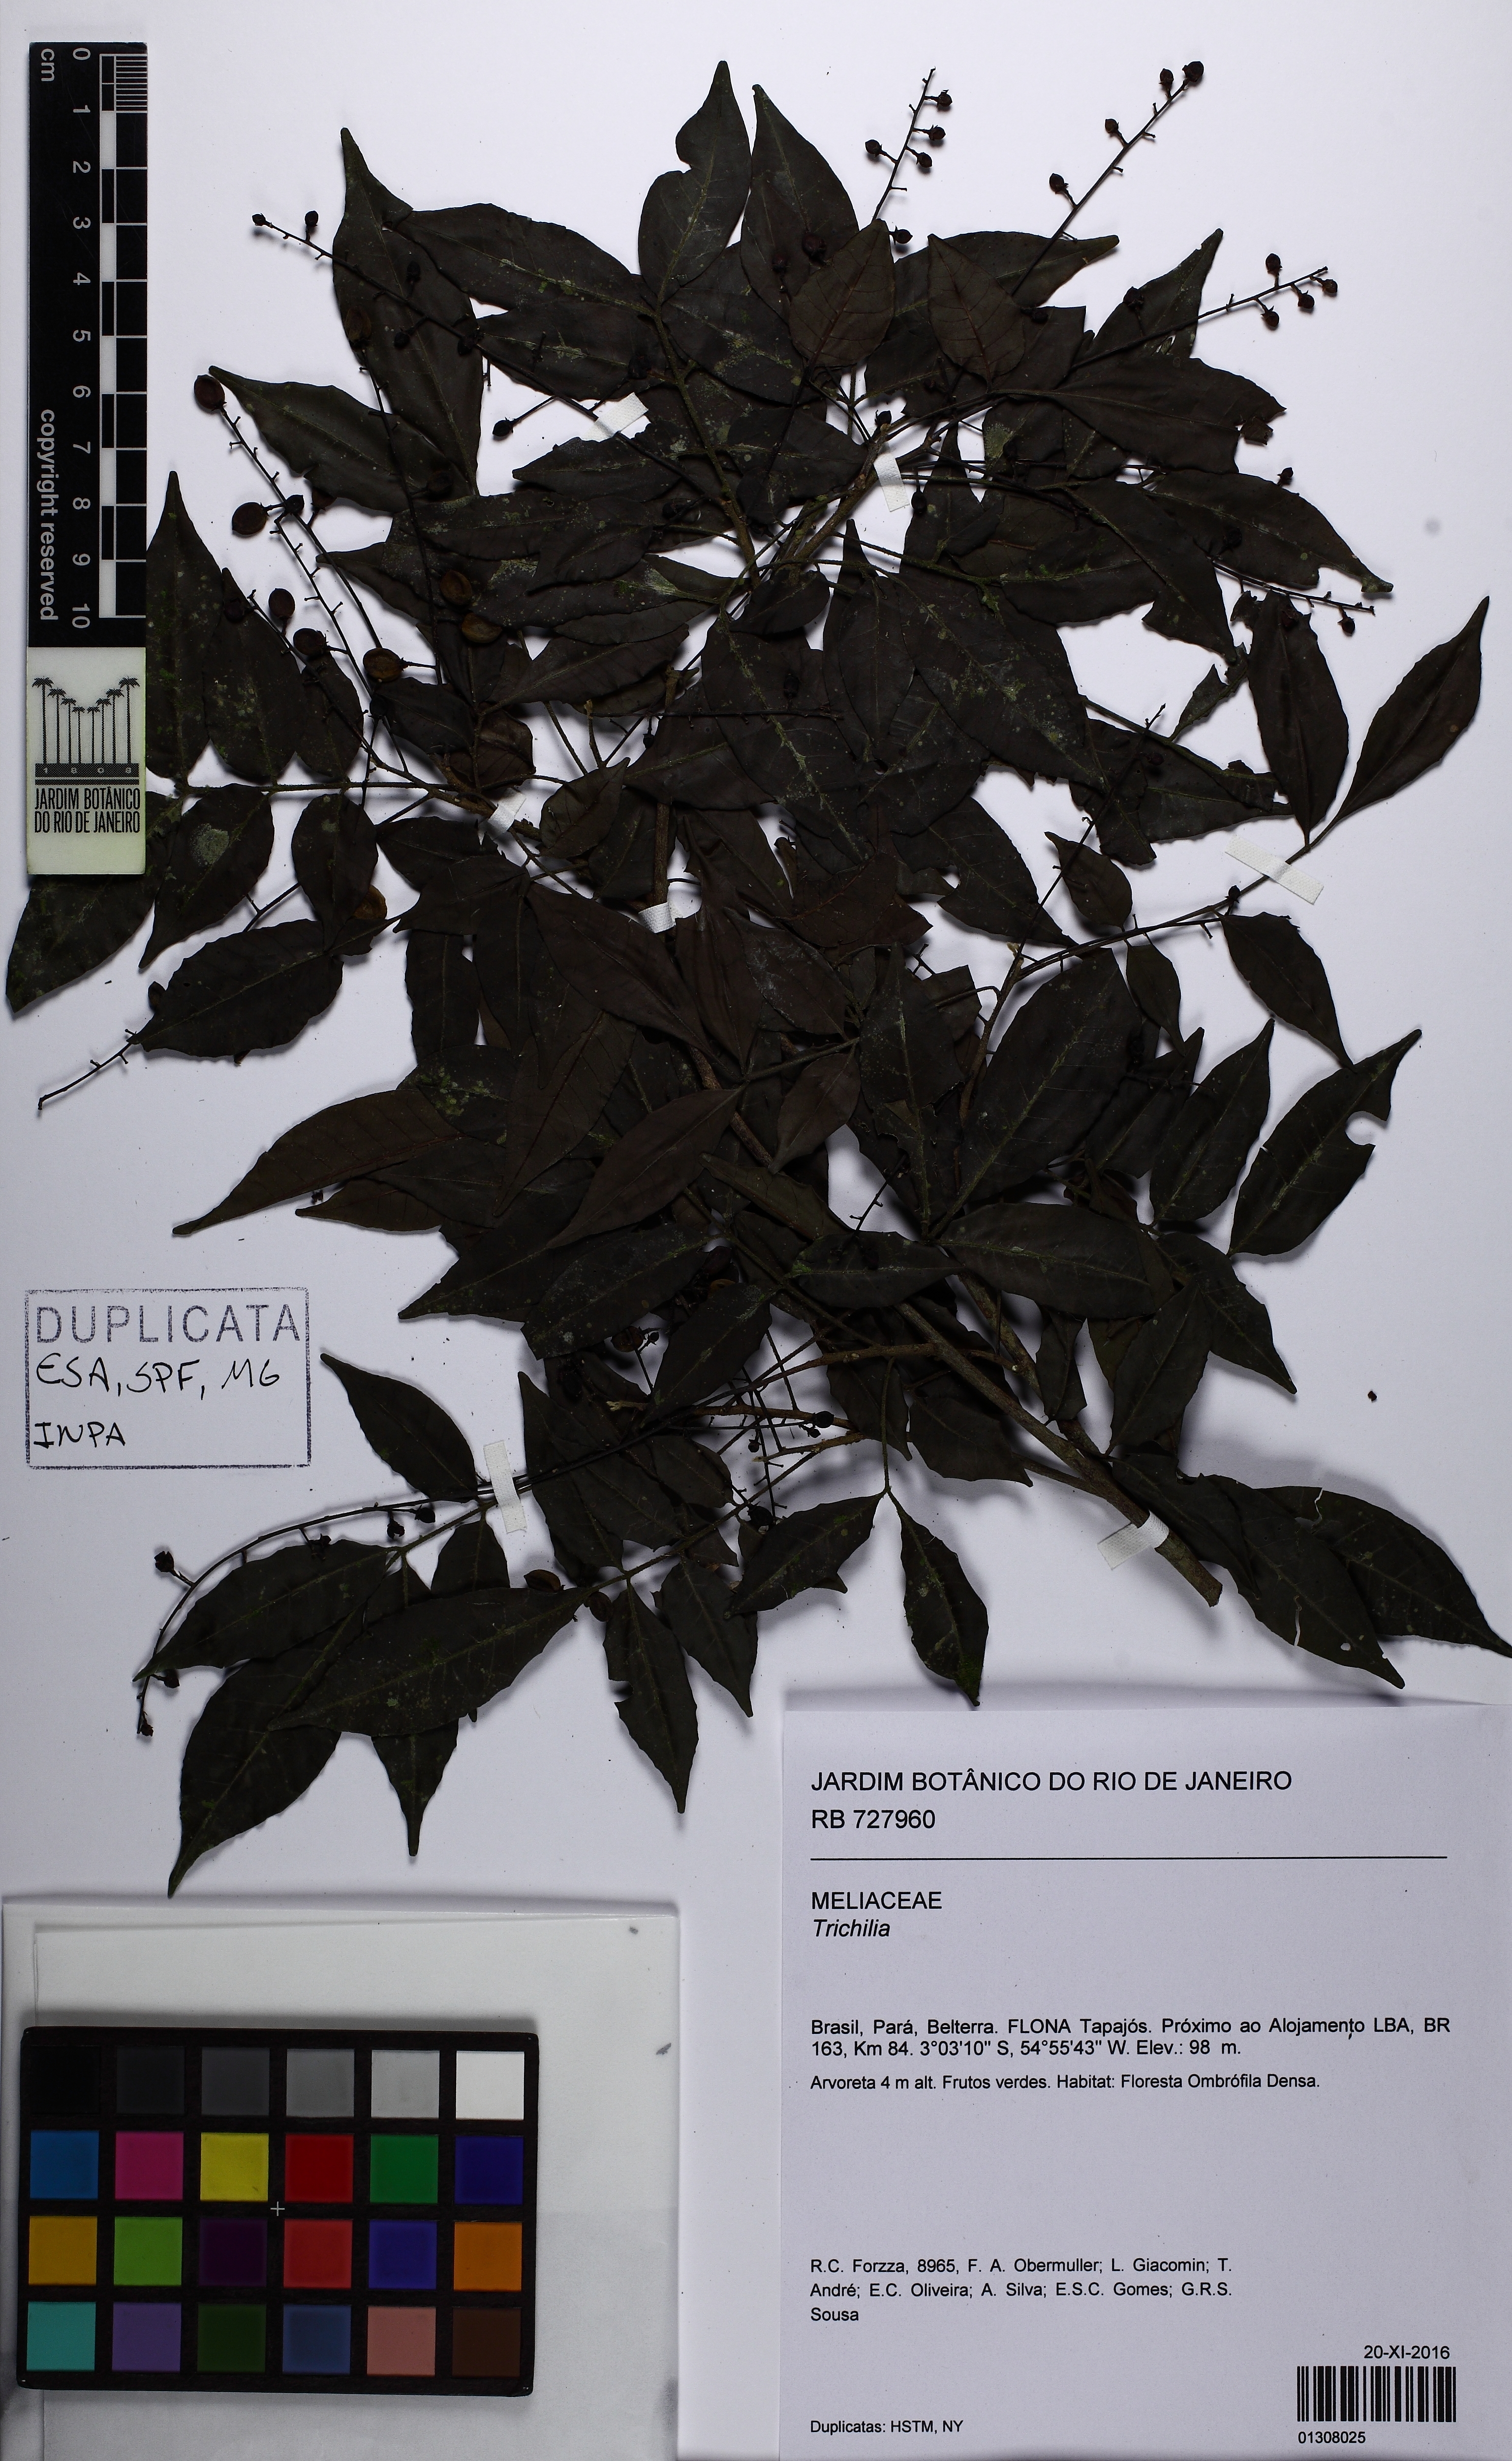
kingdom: Plantae
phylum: Tracheophyta
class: Magnoliopsida
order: Sapindales
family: Meliaceae
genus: Trichilia
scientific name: Trichilia
